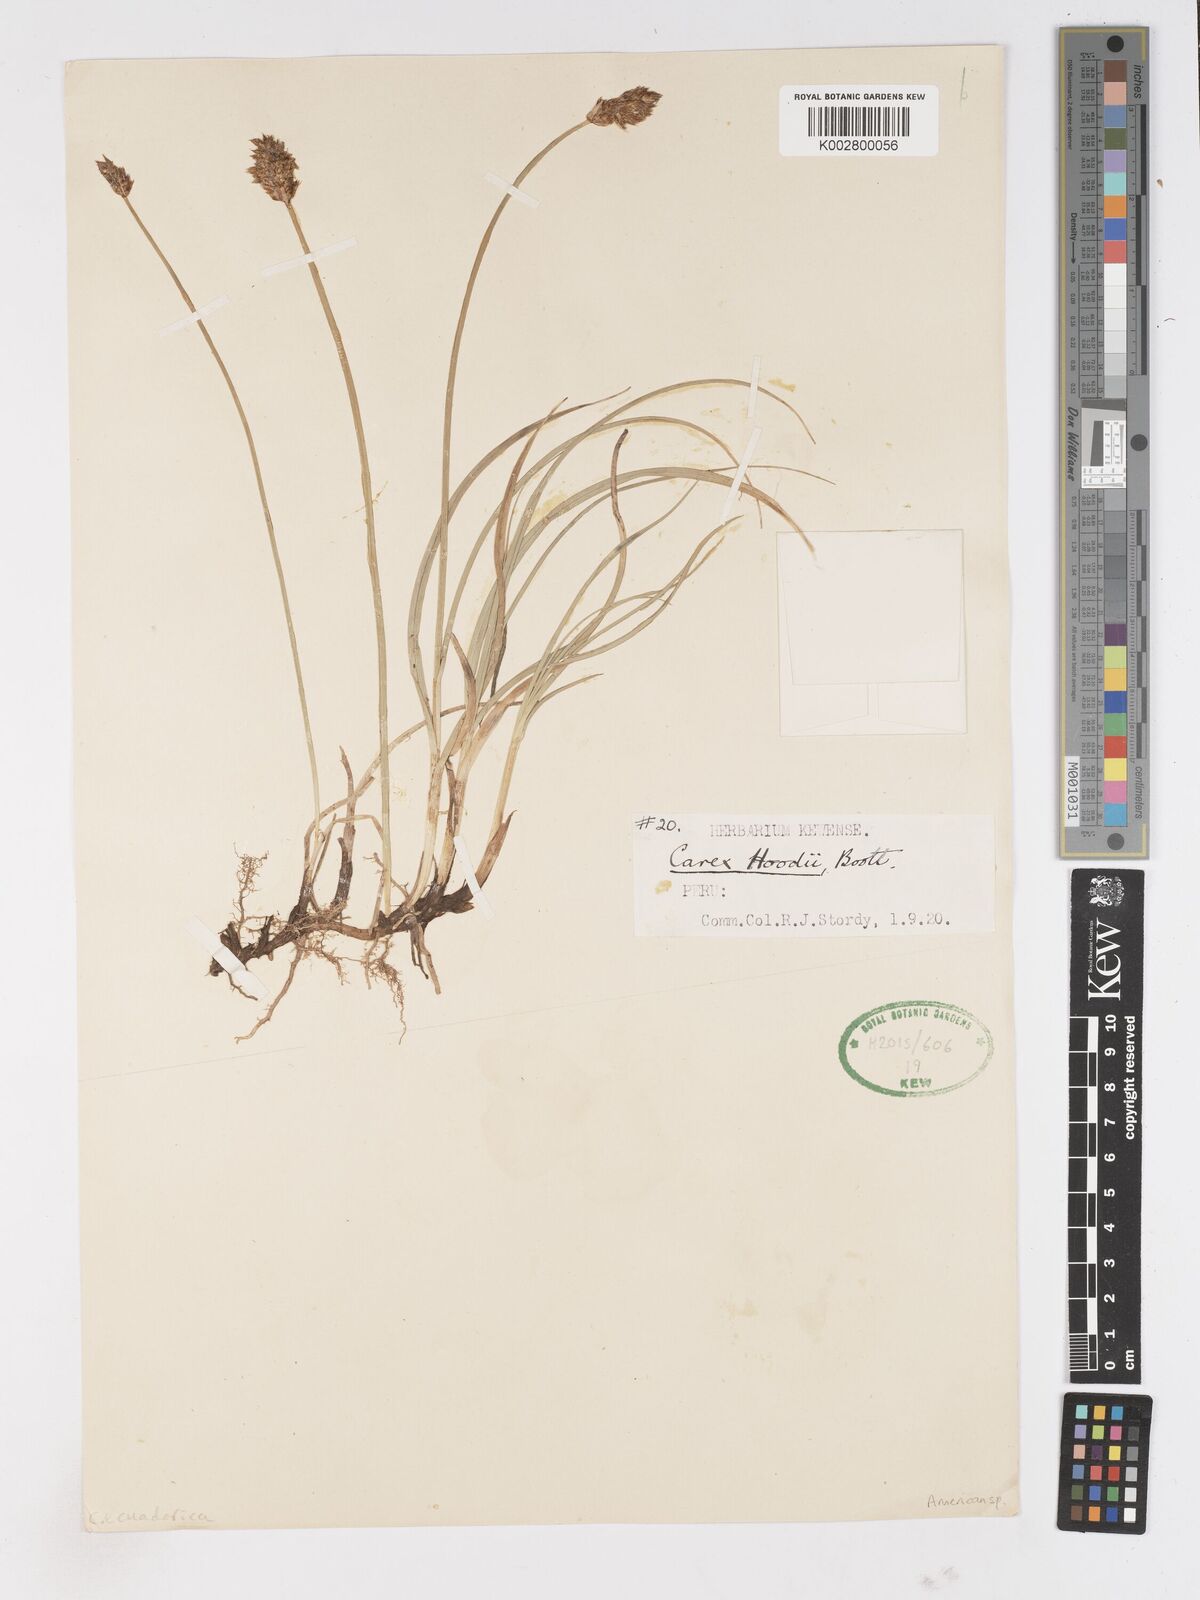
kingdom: Plantae
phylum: Tracheophyta
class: Liliopsida
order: Poales
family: Cyperaceae
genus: Carex
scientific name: Carex ecuadorica
